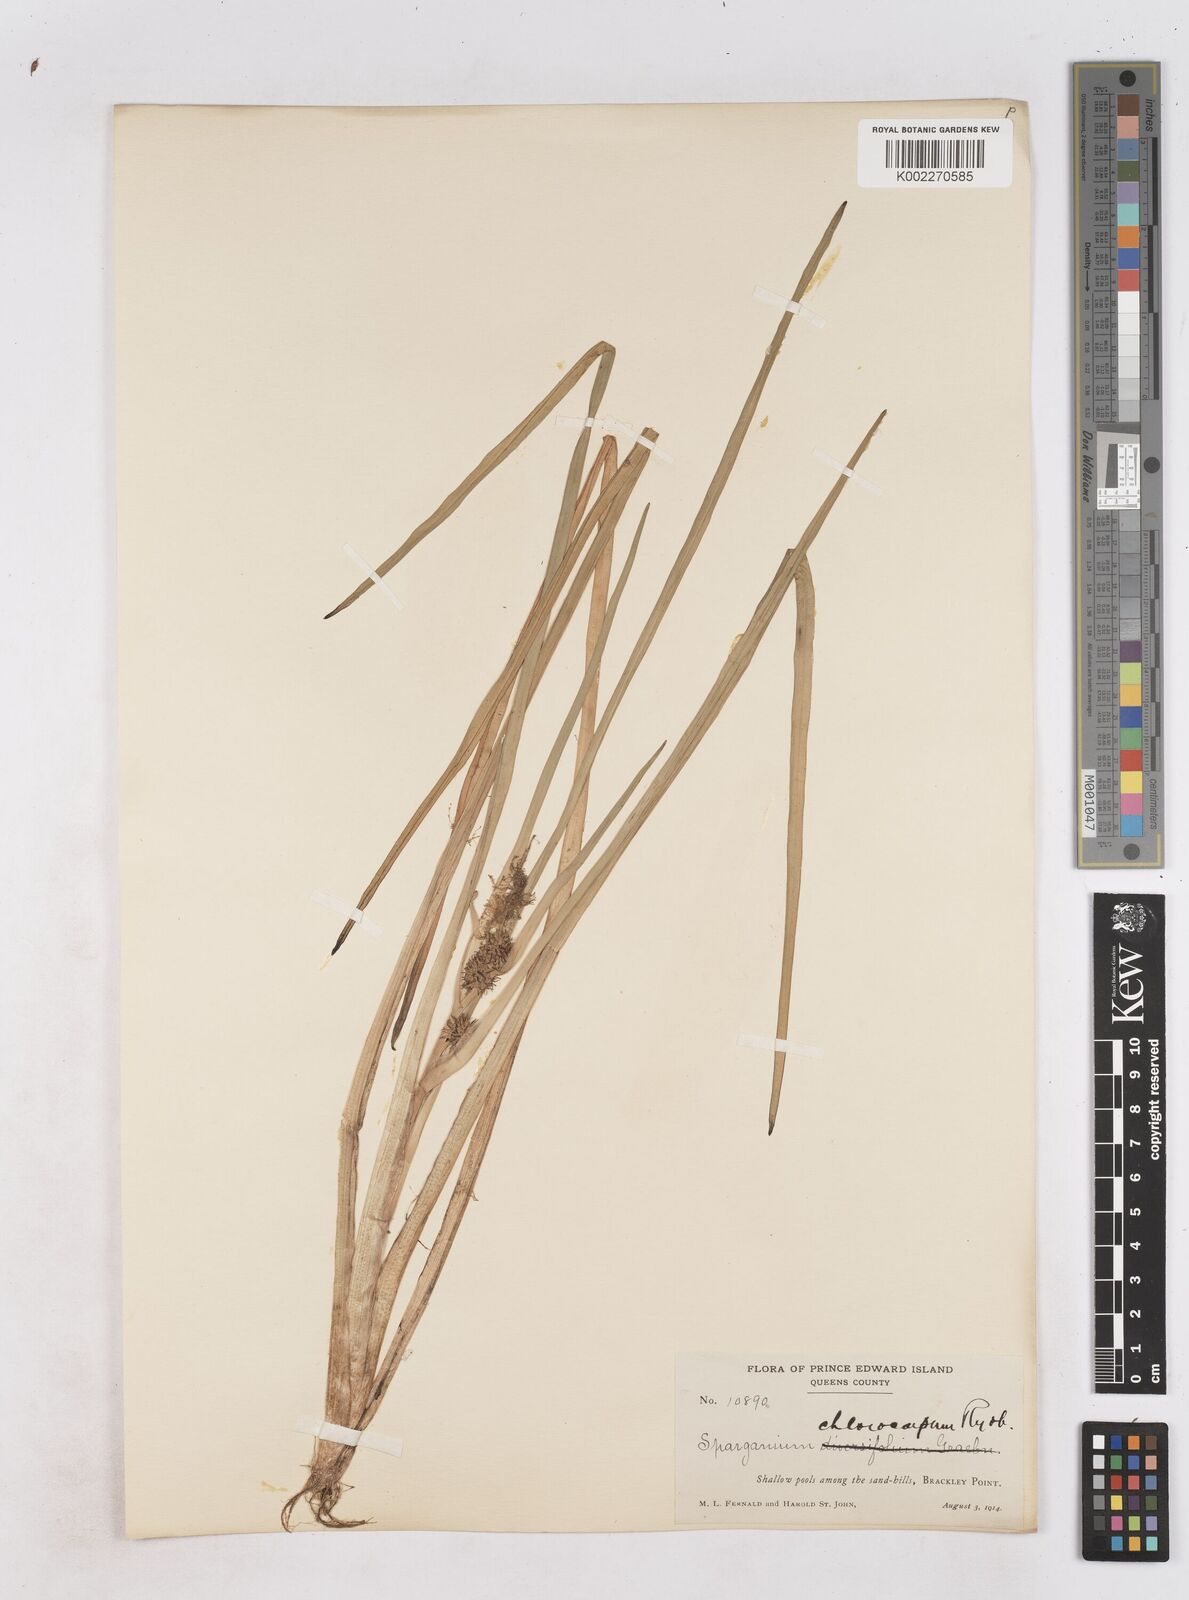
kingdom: Plantae
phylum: Tracheophyta
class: Liliopsida
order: Poales
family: Typhaceae
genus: Sparganium
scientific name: Sparganium emersum
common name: Unbranched bur-reed
